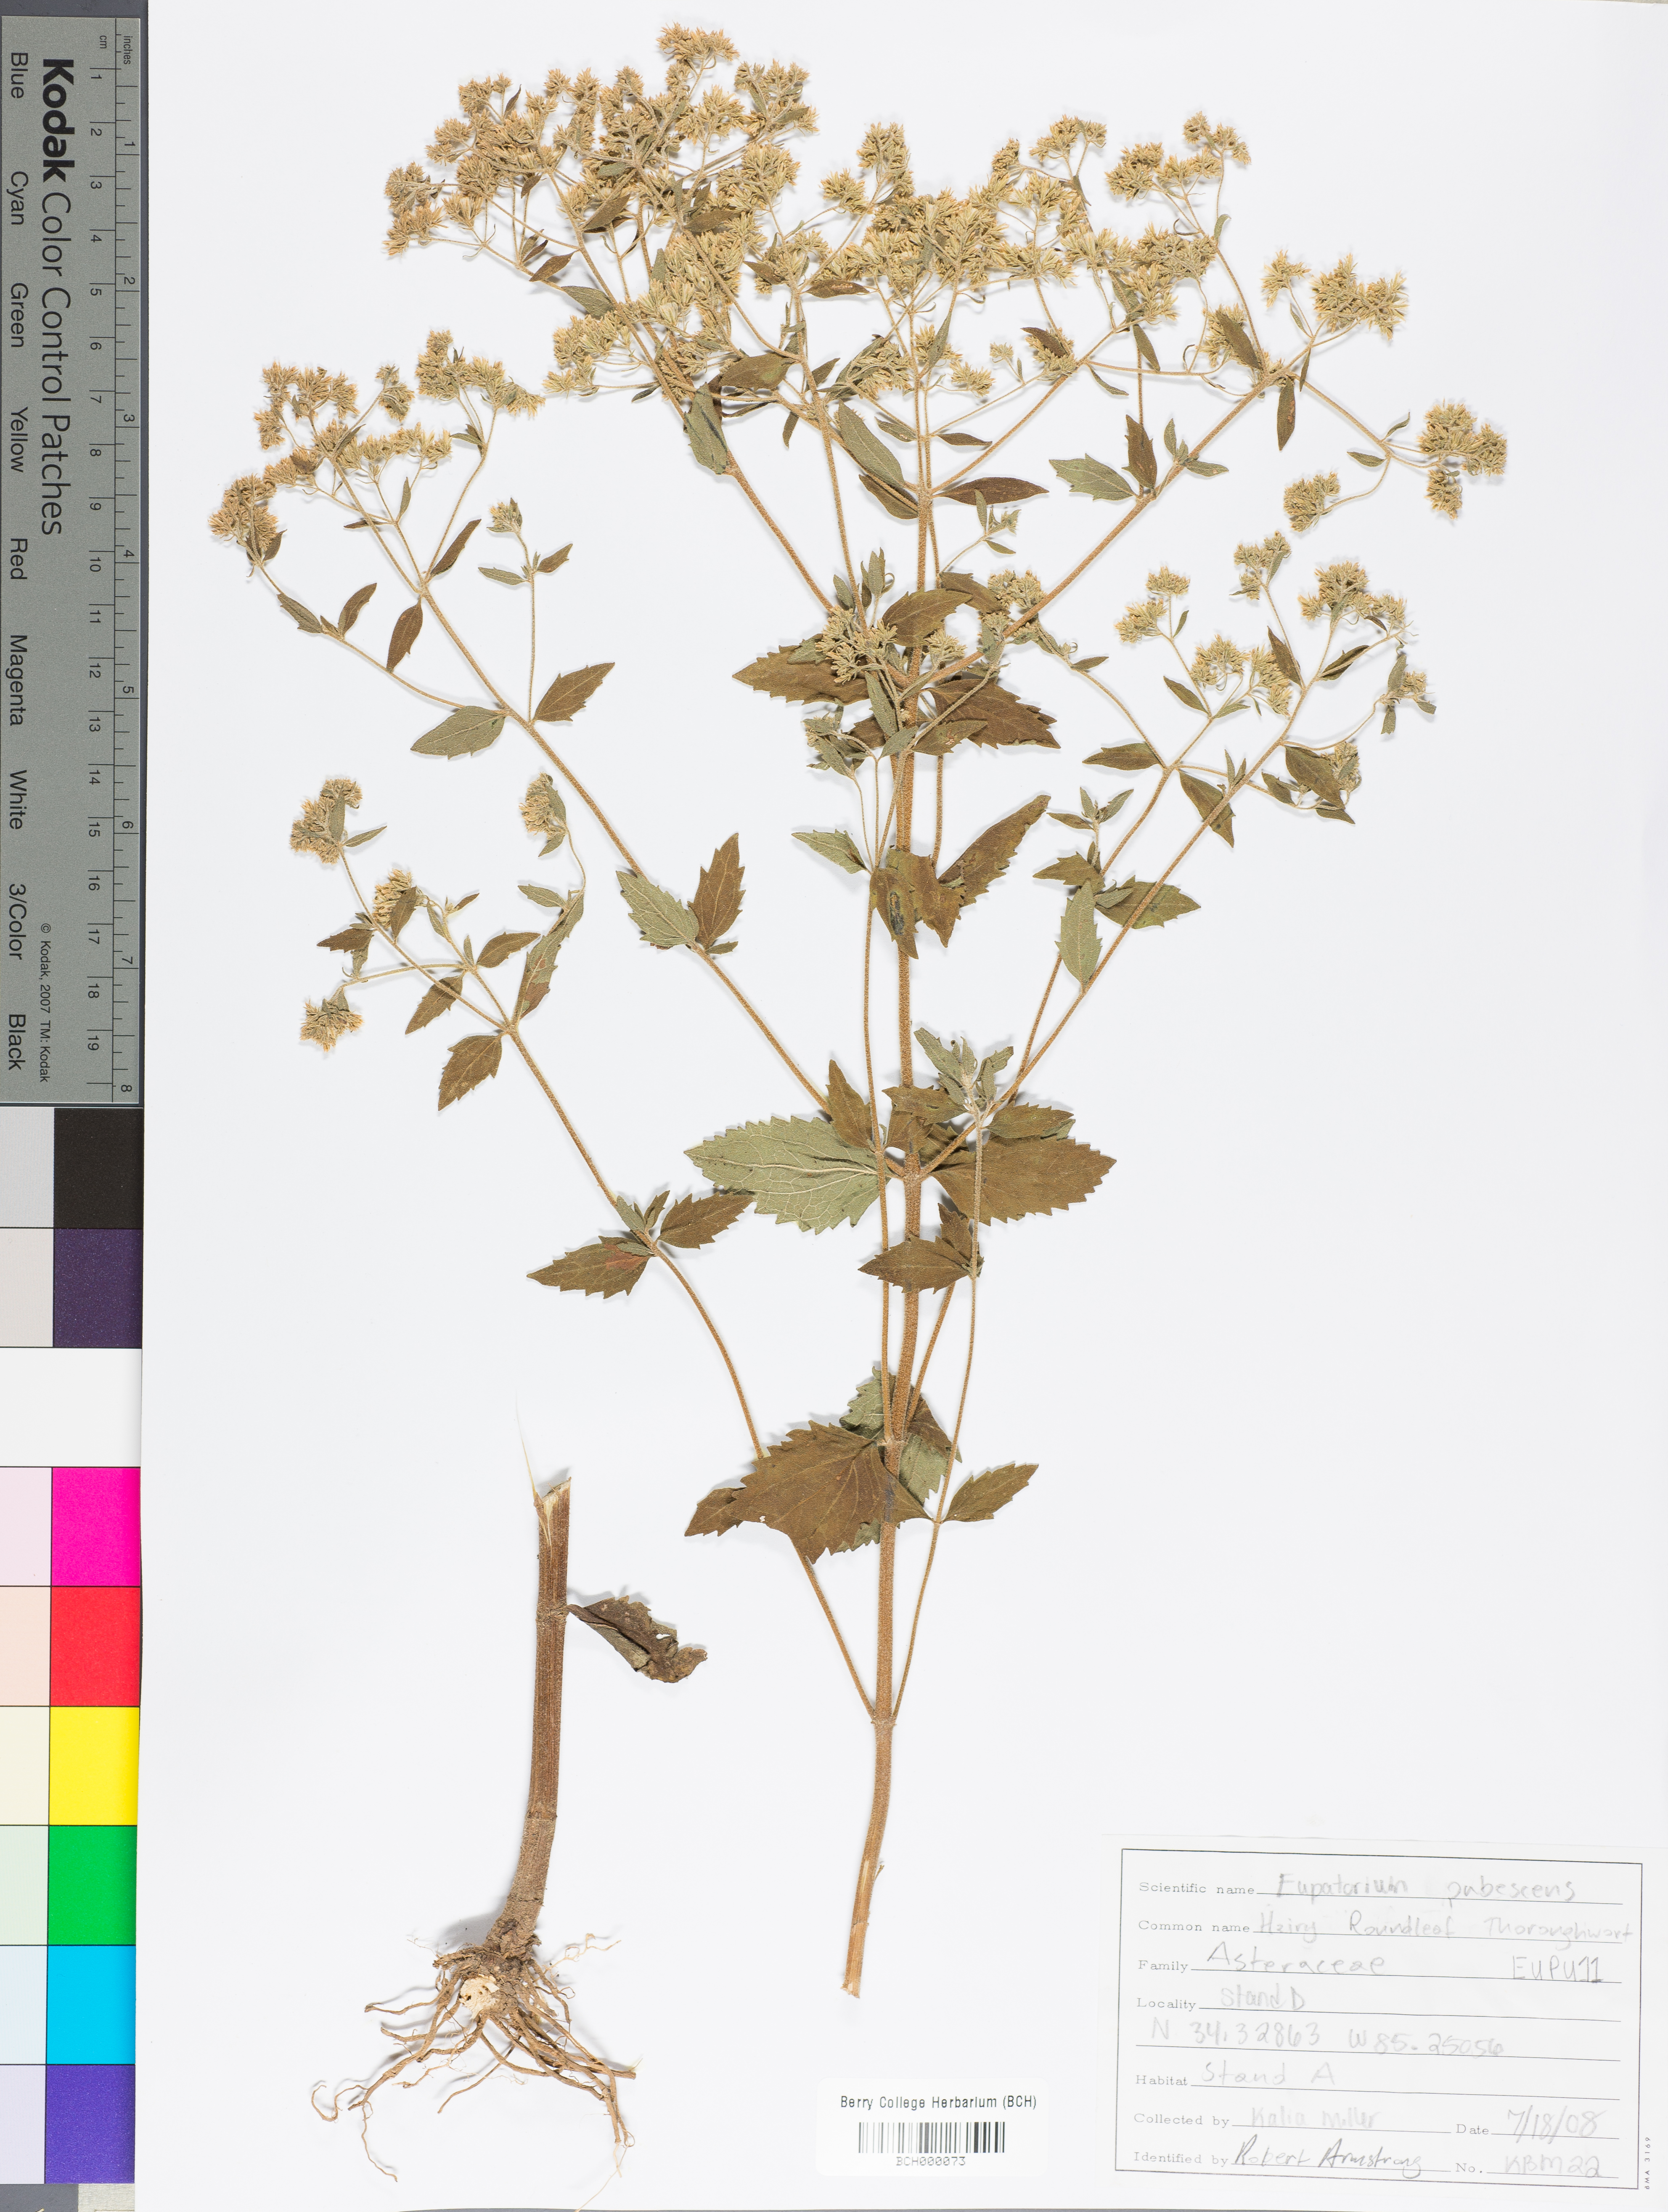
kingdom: Plantae
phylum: Tracheophyta
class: Magnoliopsida
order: Asterales
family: Asteraceae
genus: Eupatorium
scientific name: Eupatorium rotundifolium
